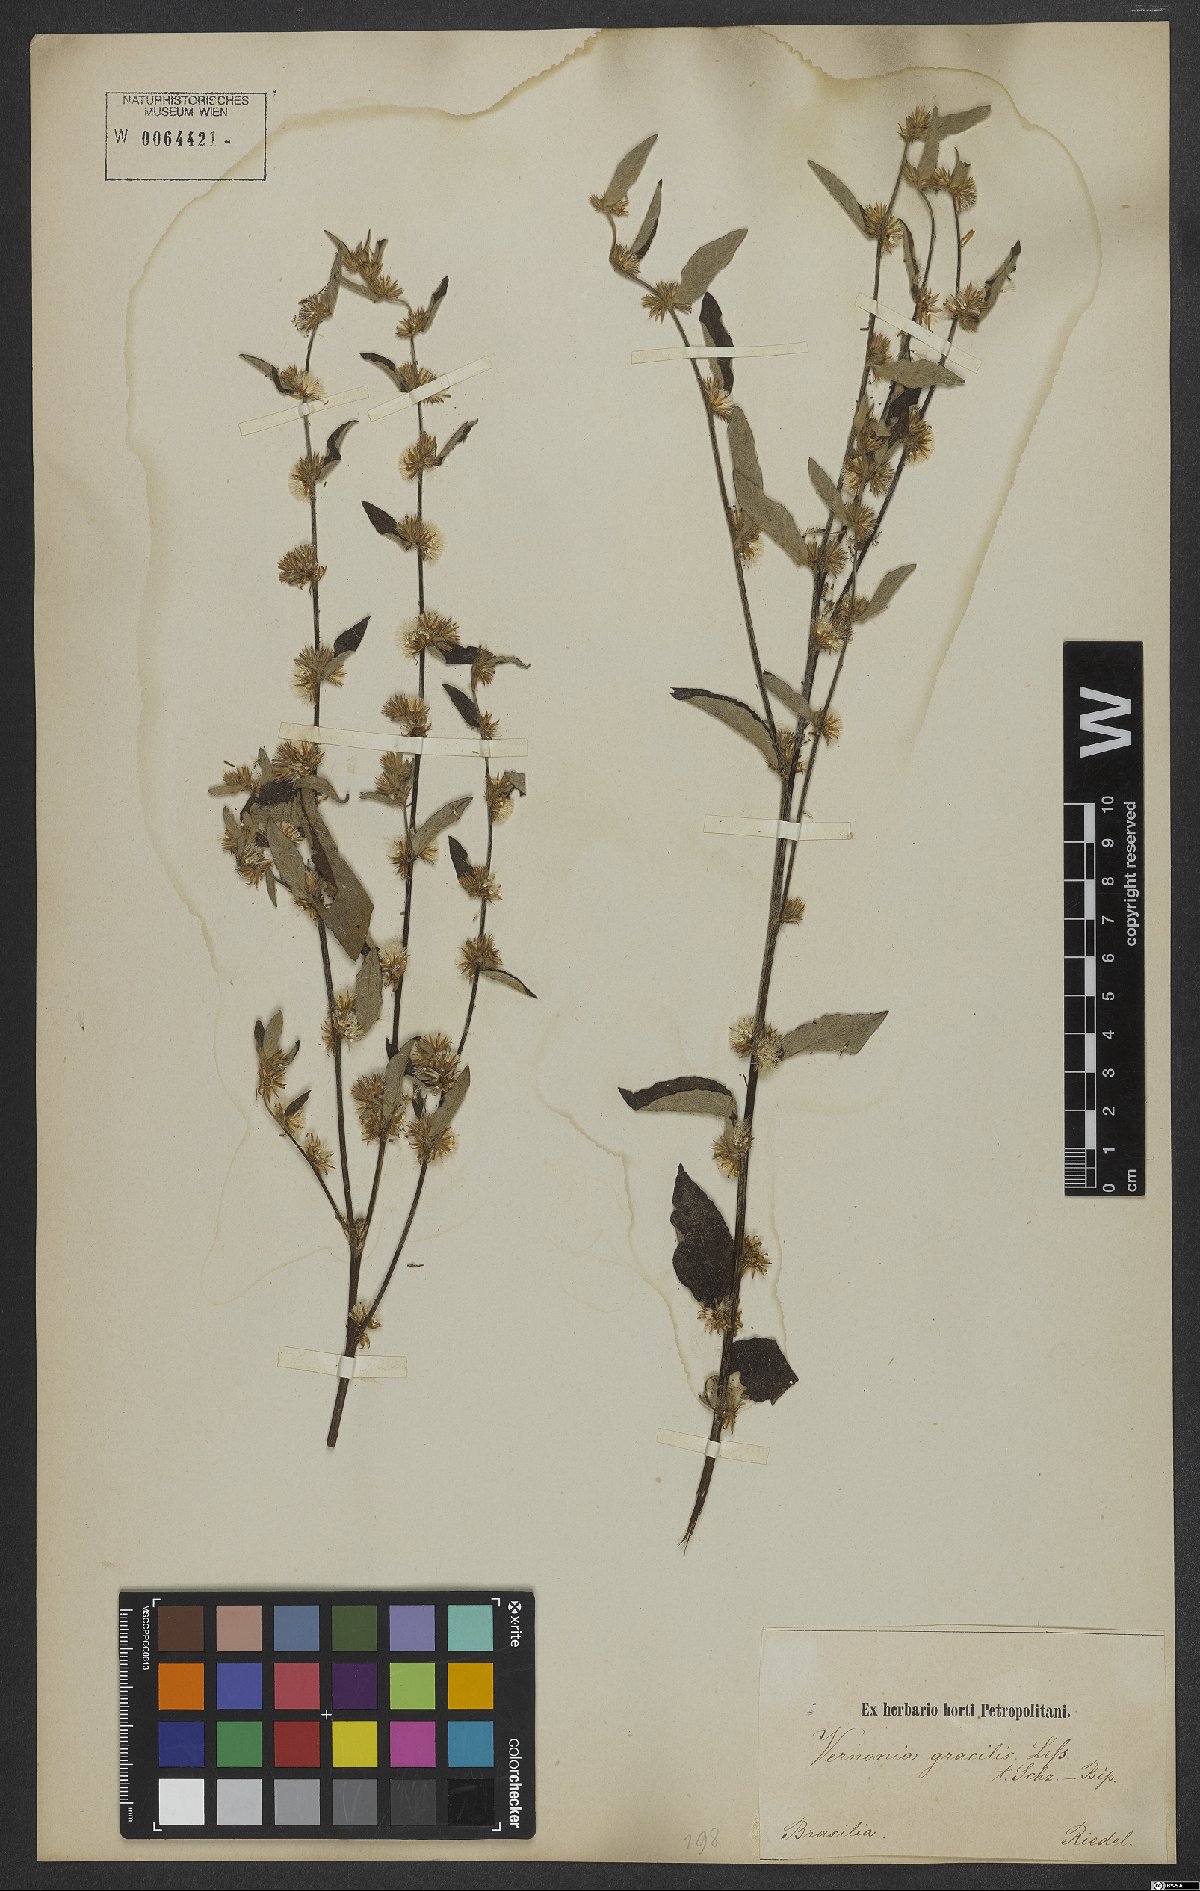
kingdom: Plantae
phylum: Tracheophyta
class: Magnoliopsida
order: Asterales
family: Asteraceae
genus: Lepidaploa
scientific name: Lepidaploa gracilis
